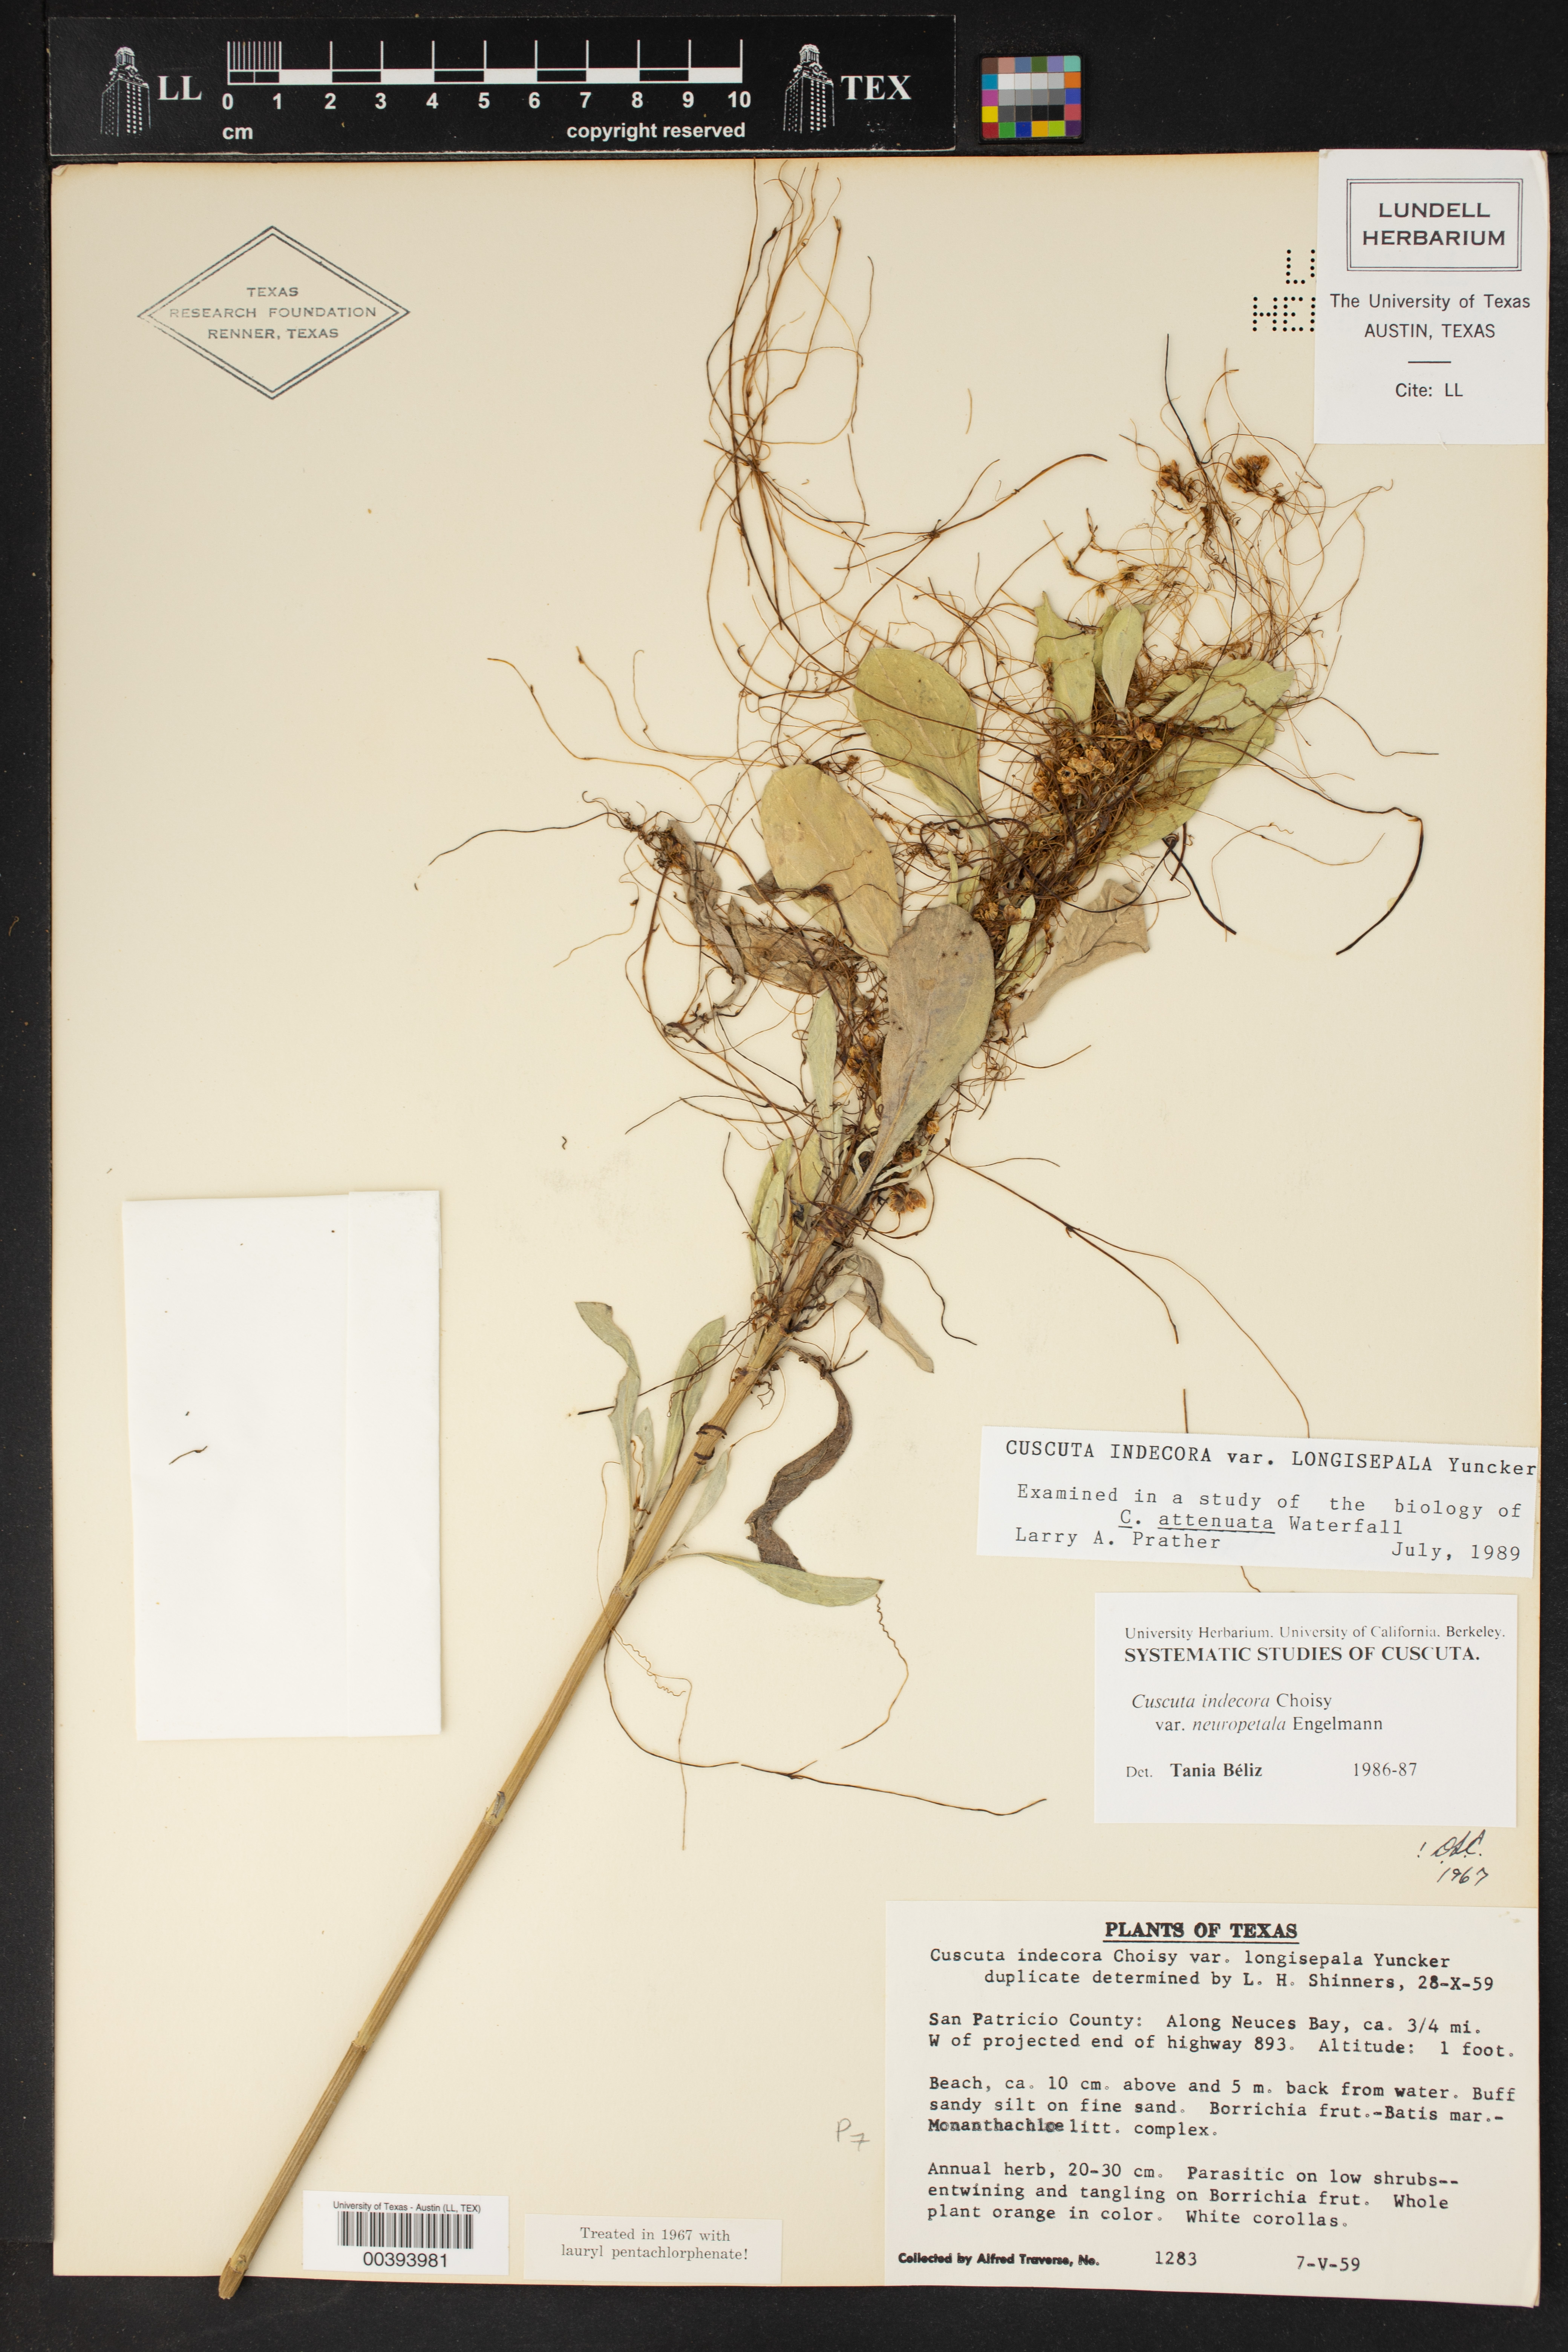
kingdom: Plantae
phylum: Tracheophyta
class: Magnoliopsida
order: Solanales
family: Convolvulaceae
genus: Cuscuta
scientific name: Cuscuta indecora
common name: Large-seed dodder
